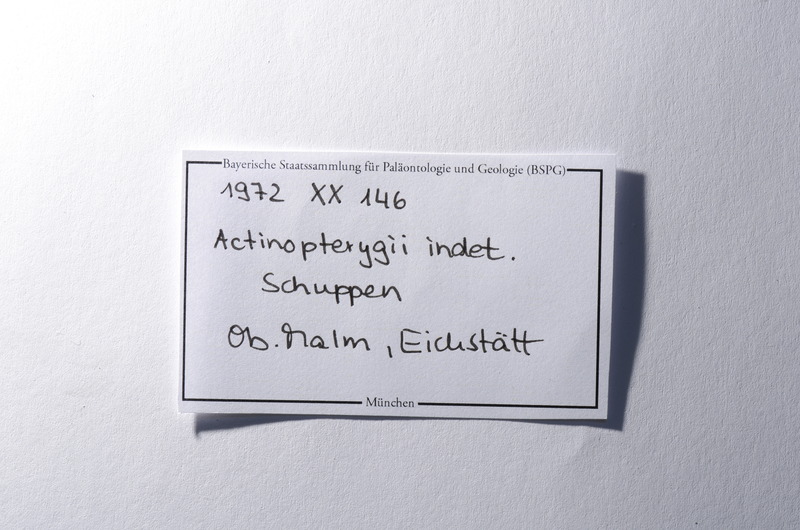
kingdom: Animalia
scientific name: Animalia
